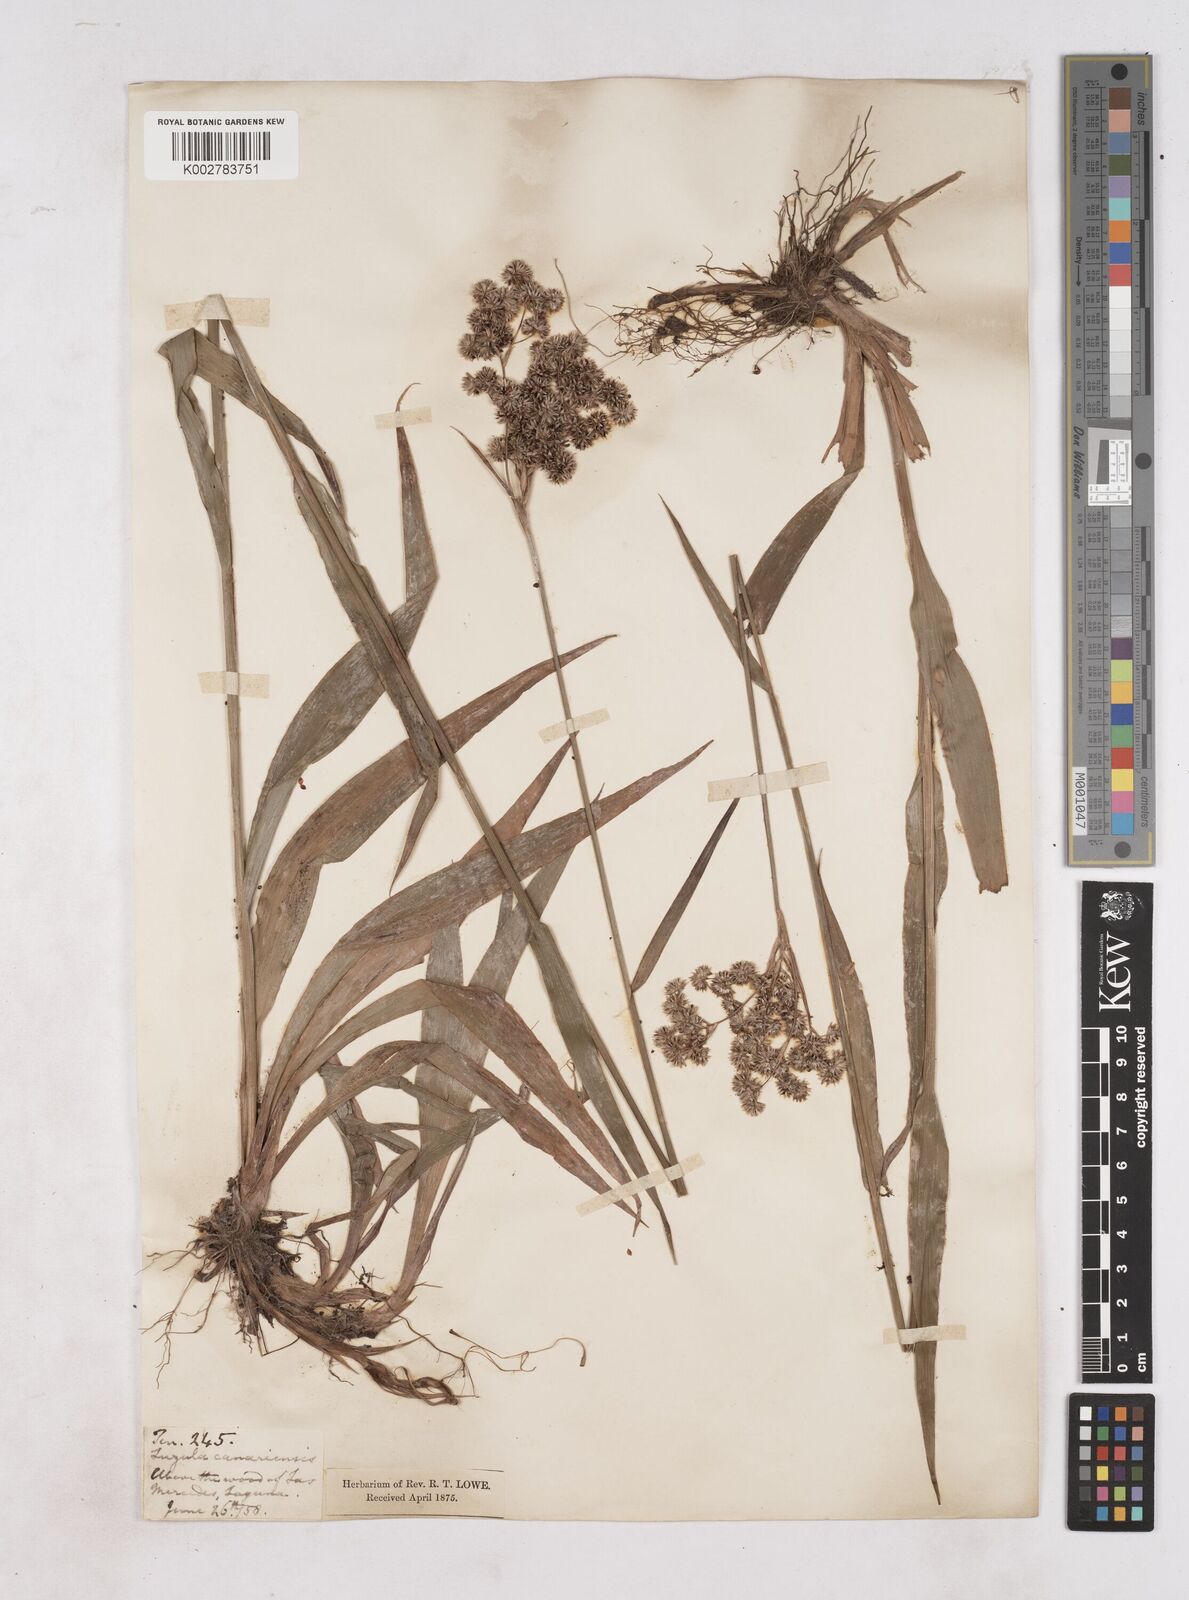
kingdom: Plantae
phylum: Tracheophyta
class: Liliopsida
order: Poales
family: Juncaceae
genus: Luzula
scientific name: Luzula canariensis
